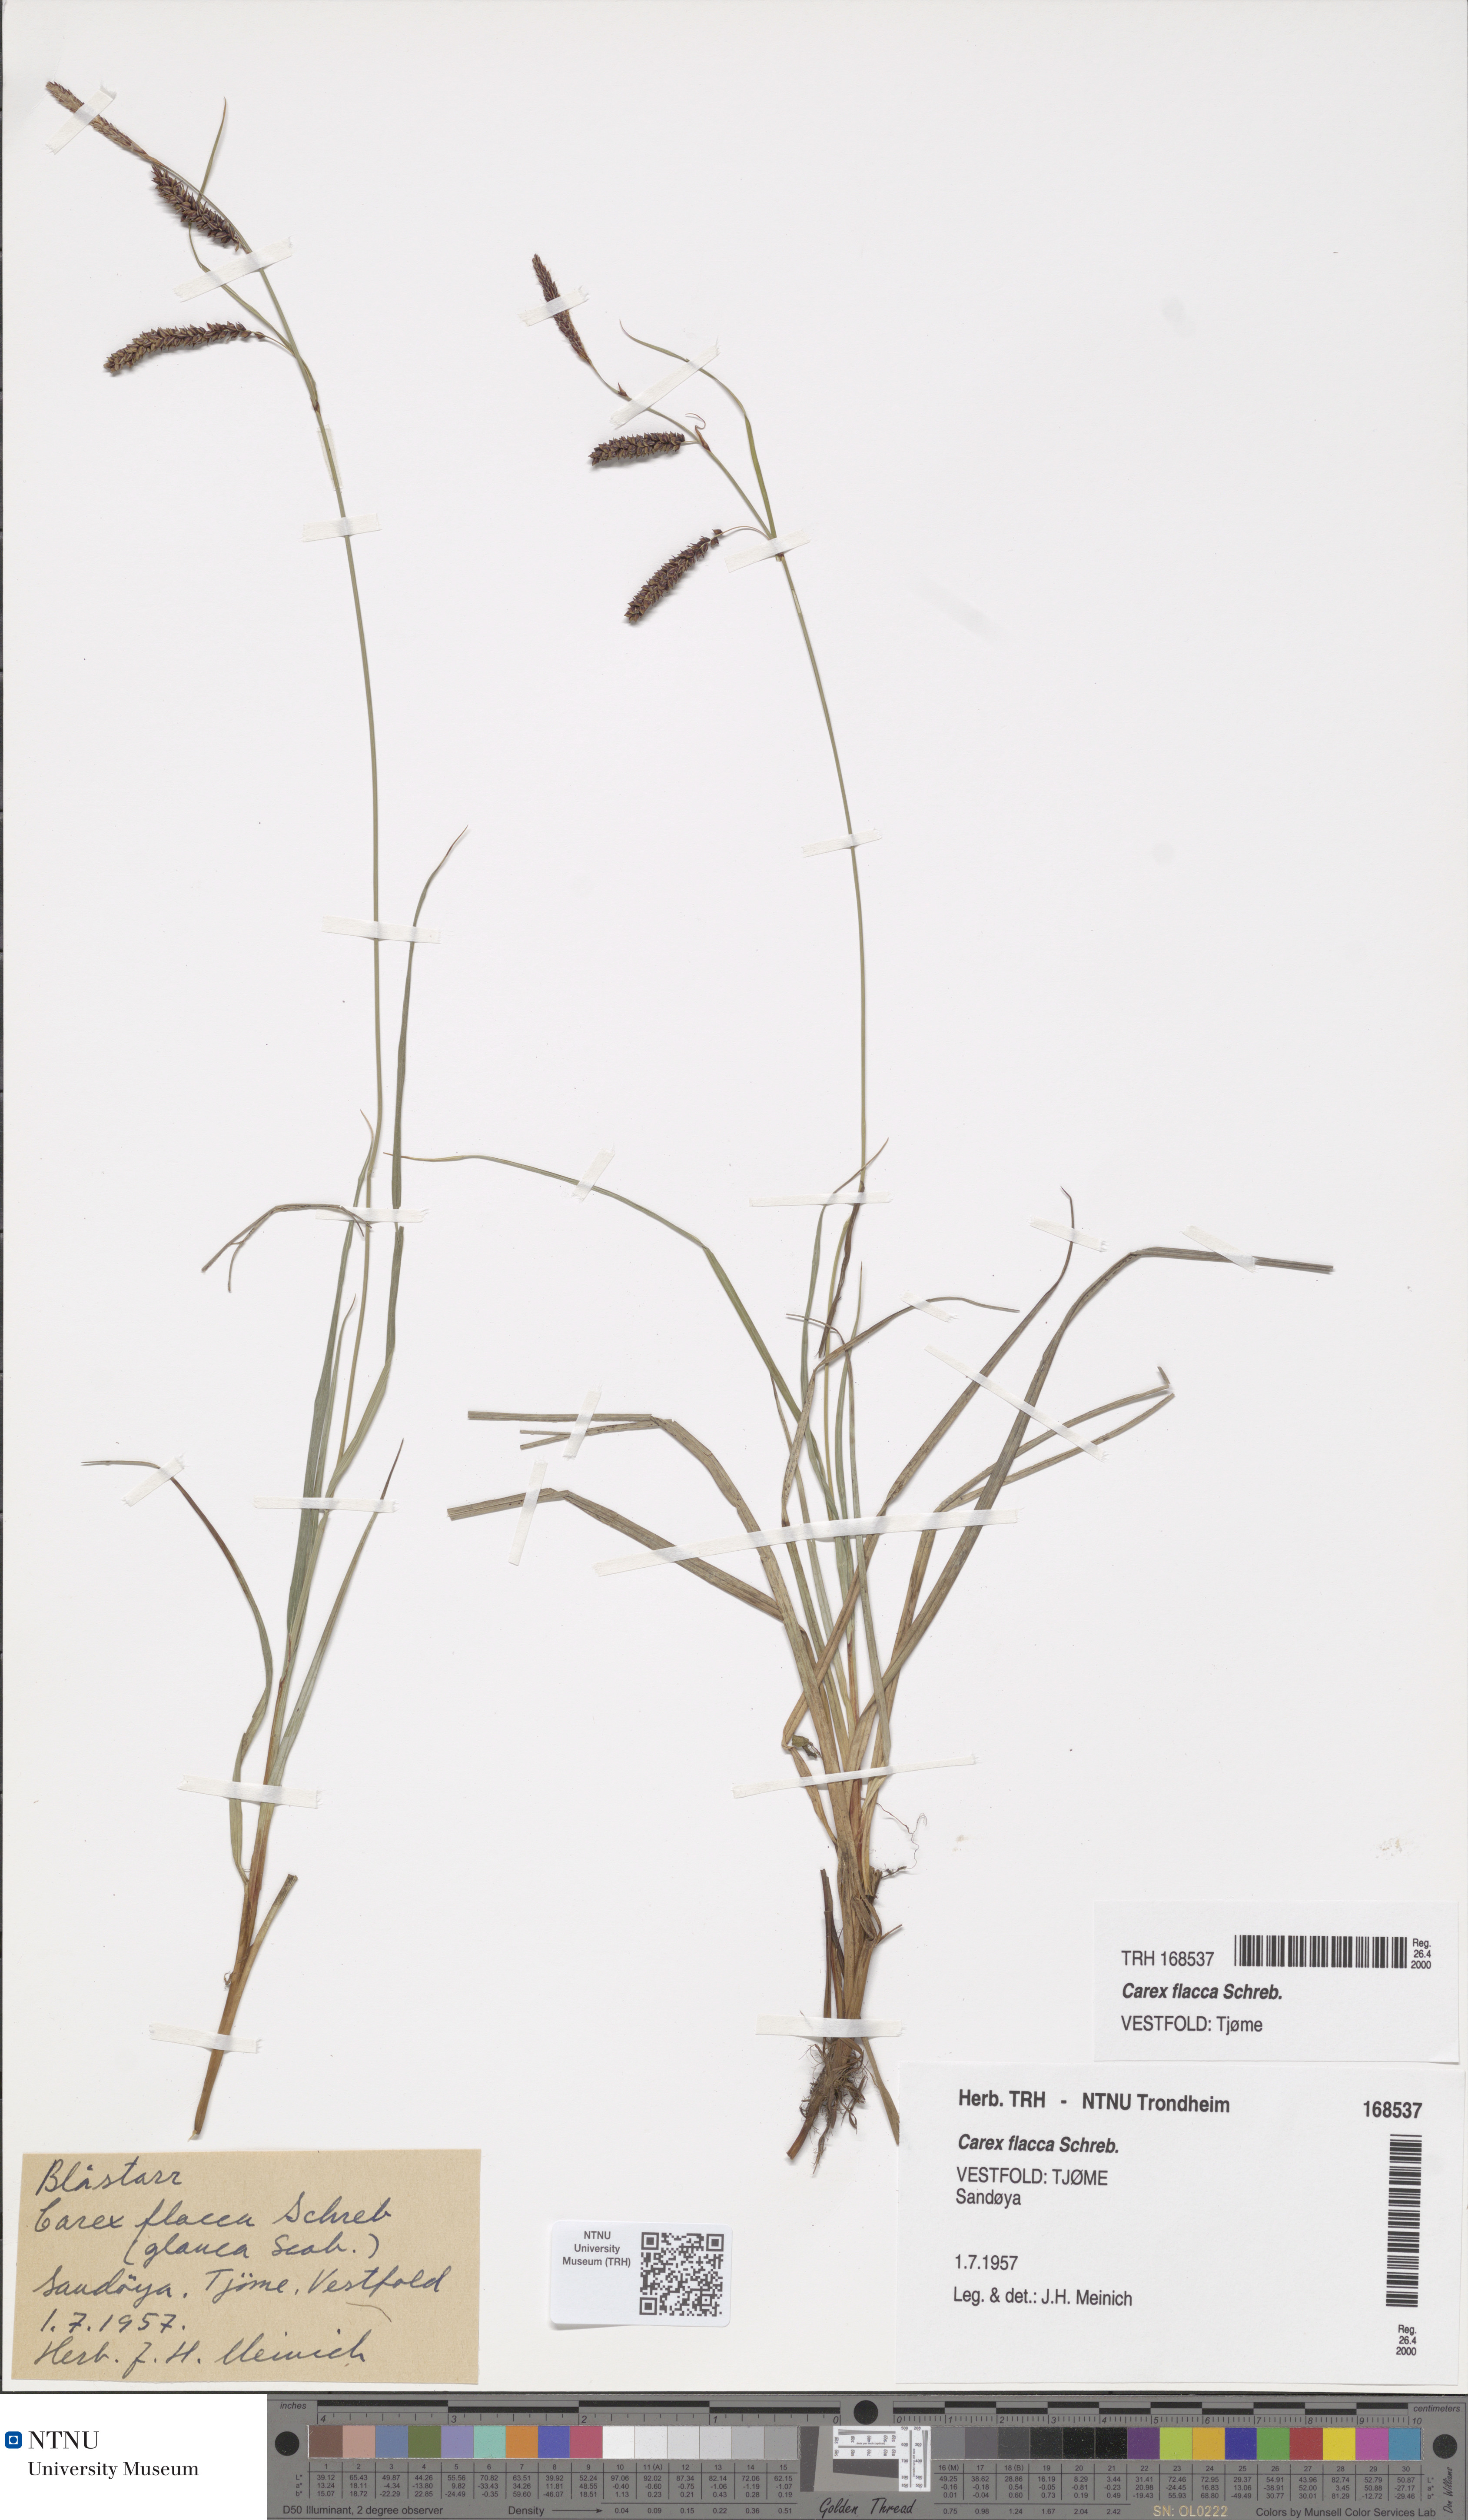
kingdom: Plantae
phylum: Tracheophyta
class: Liliopsida
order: Poales
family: Cyperaceae
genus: Carex
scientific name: Carex flacca
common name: Glaucous sedge
